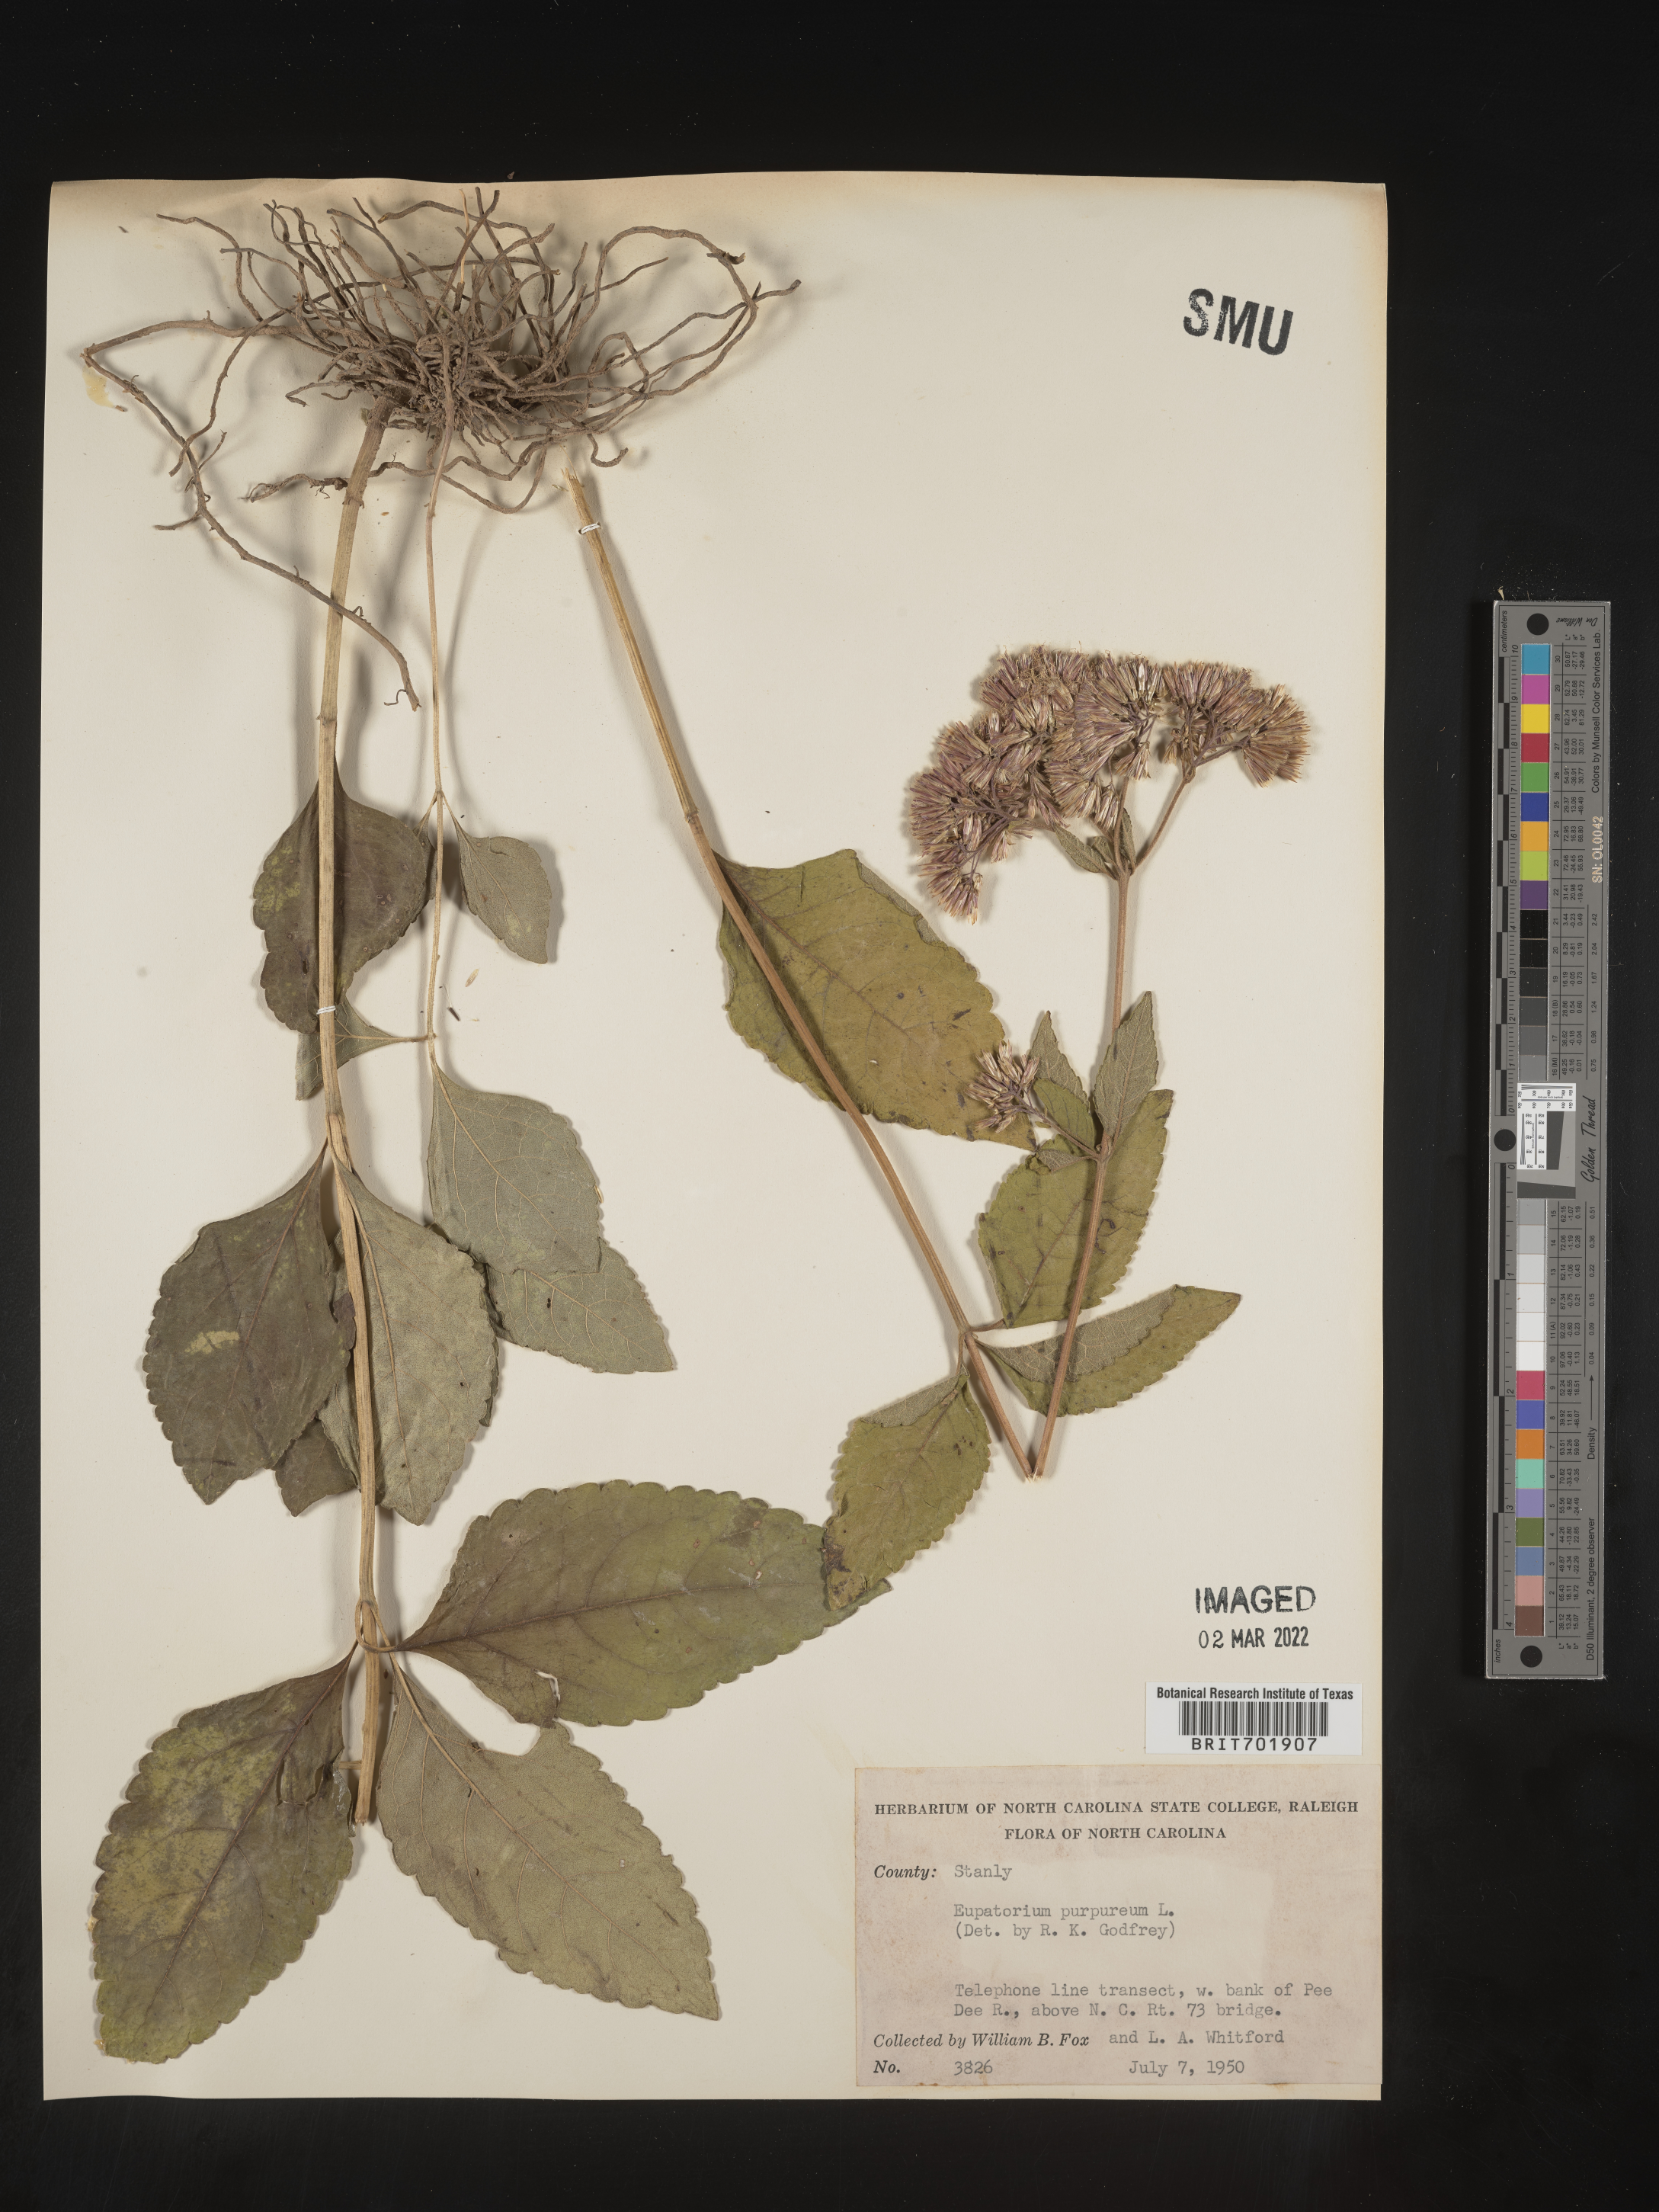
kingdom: Plantae
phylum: Tracheophyta
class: Magnoliopsida
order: Asterales
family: Asteraceae
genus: Eupatorium
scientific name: Eupatorium quaternum
